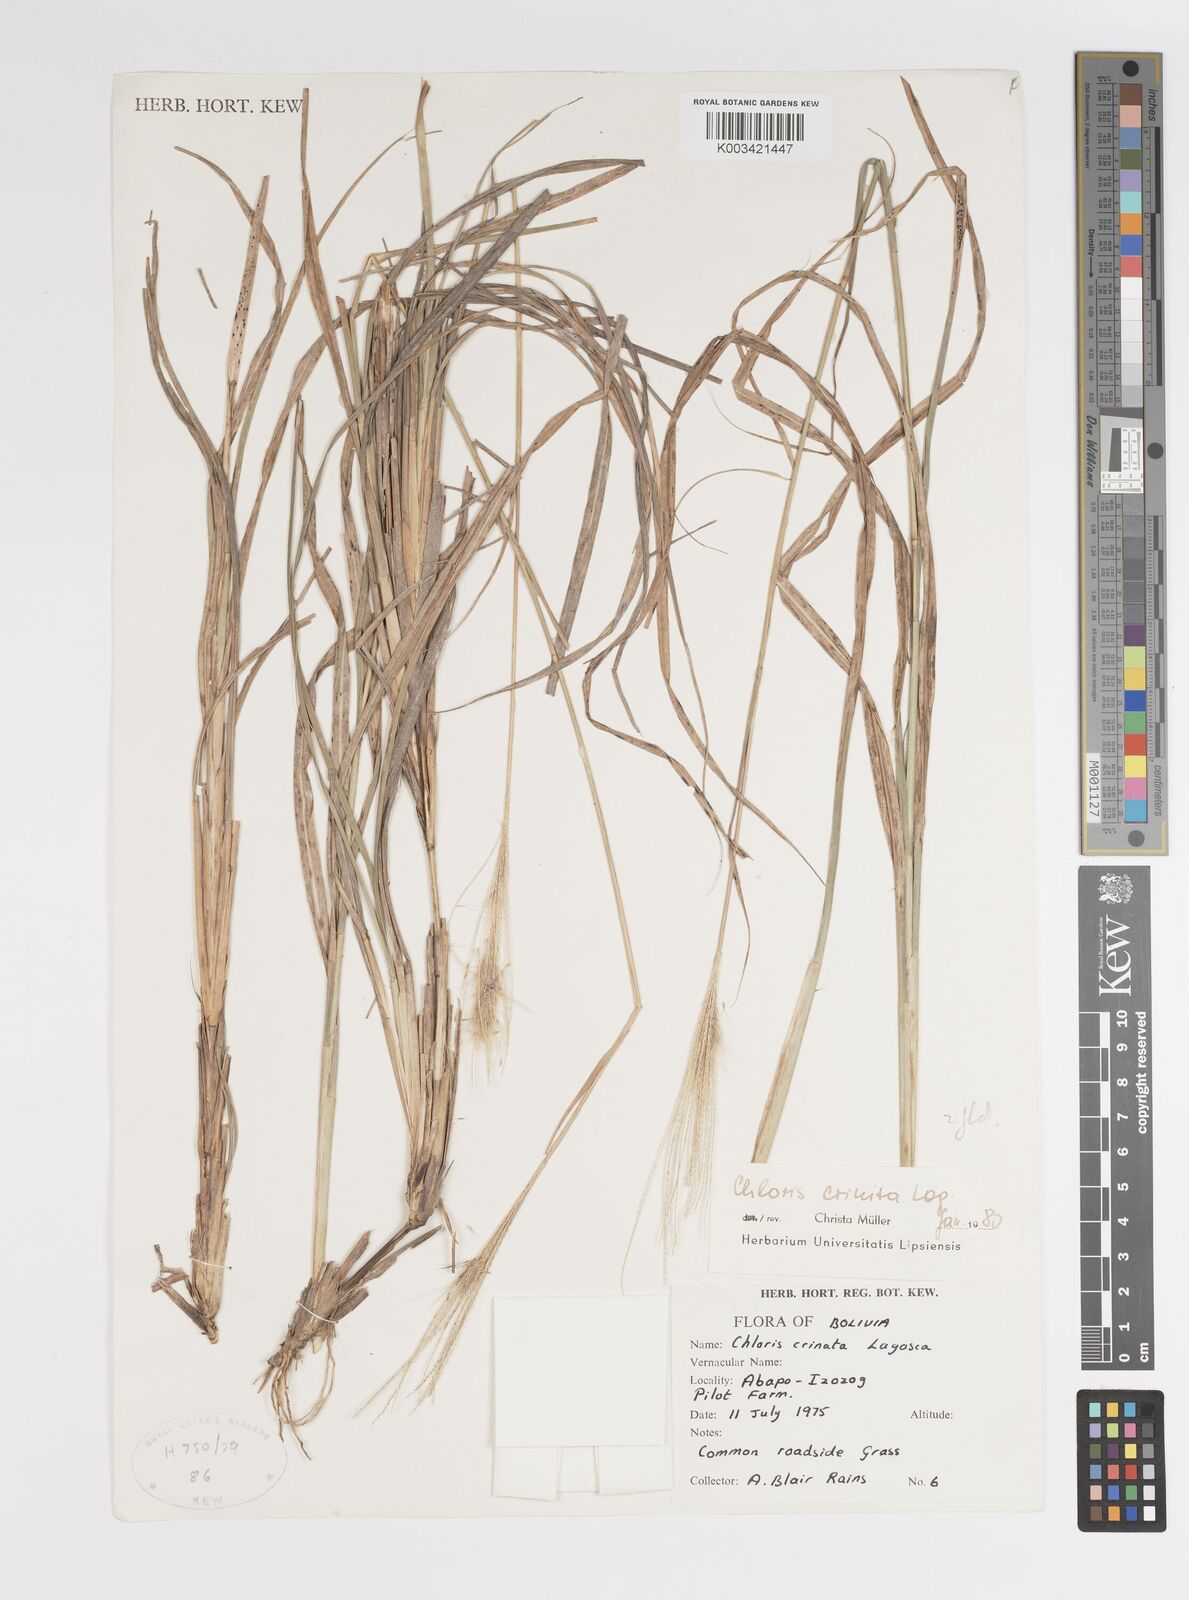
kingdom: Plantae
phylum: Tracheophyta
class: Liliopsida
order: Poales
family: Poaceae
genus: Leptochloa
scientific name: Leptochloa crinita
